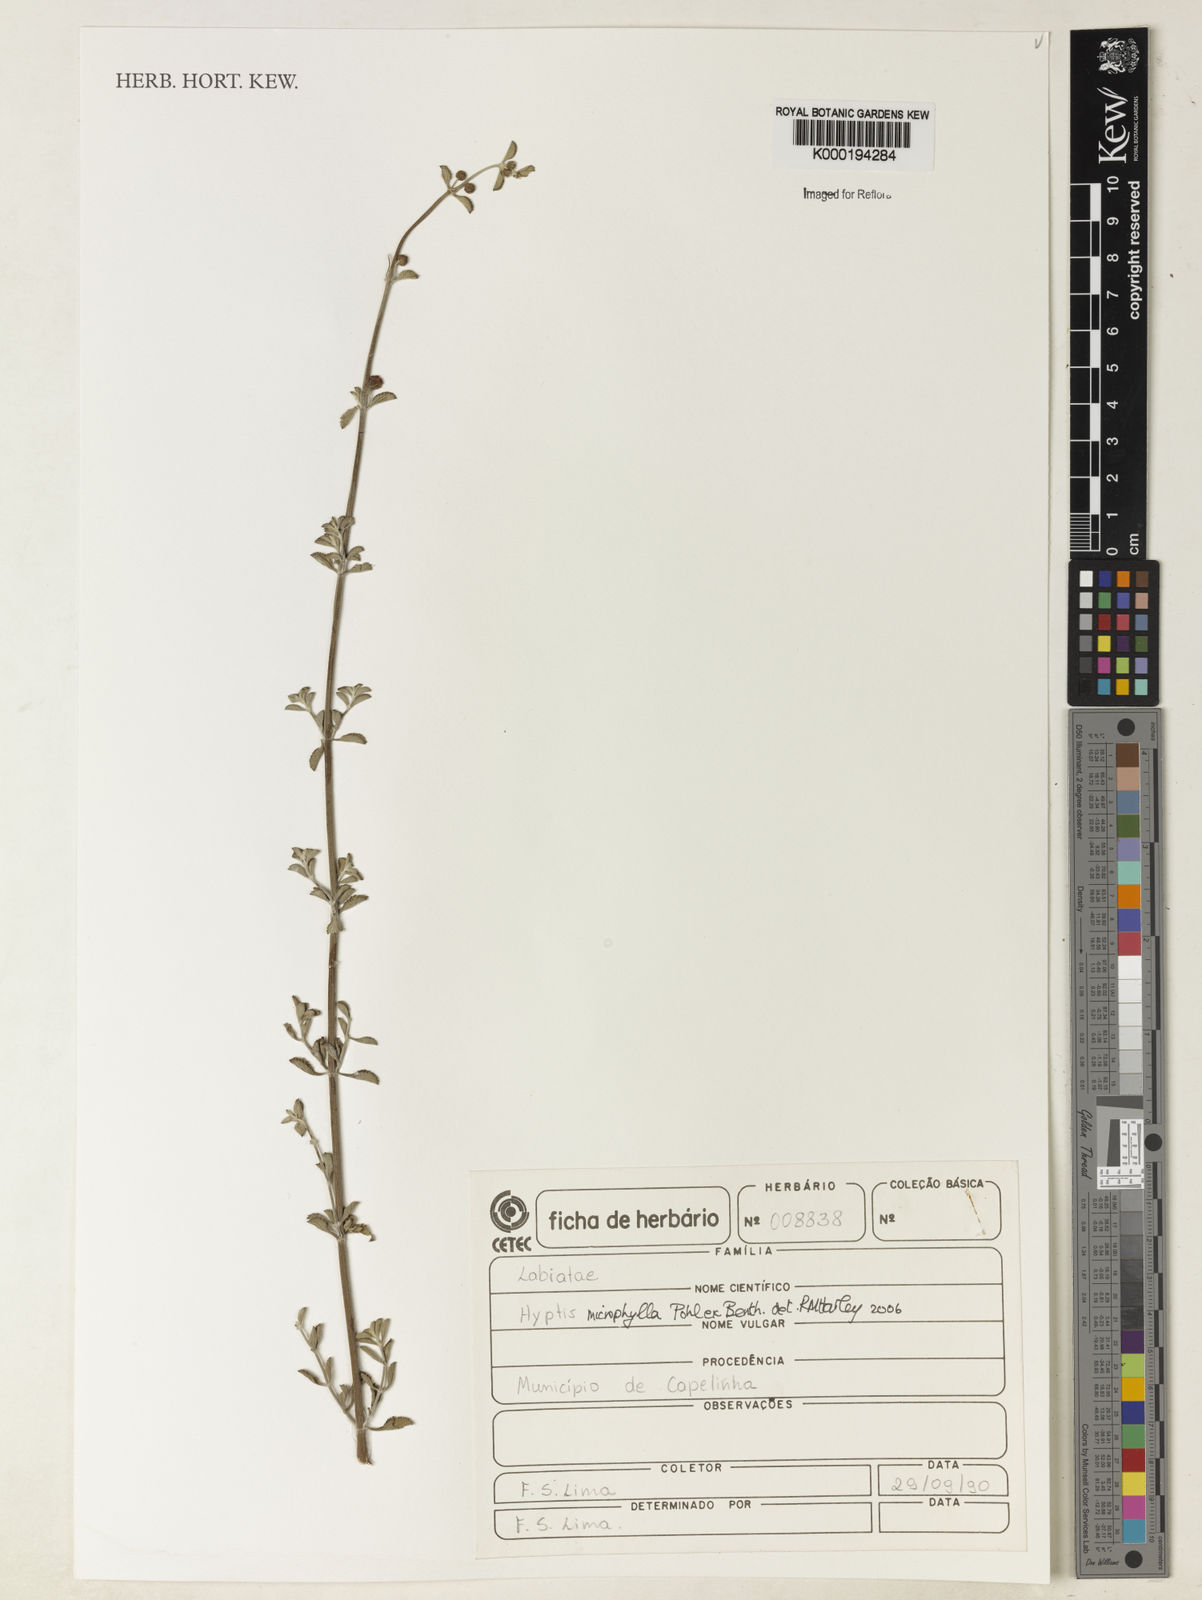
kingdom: Plantae
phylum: Tracheophyta
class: Magnoliopsida
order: Lamiales
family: Lamiaceae
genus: Hyptis
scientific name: Hyptis microphylla
